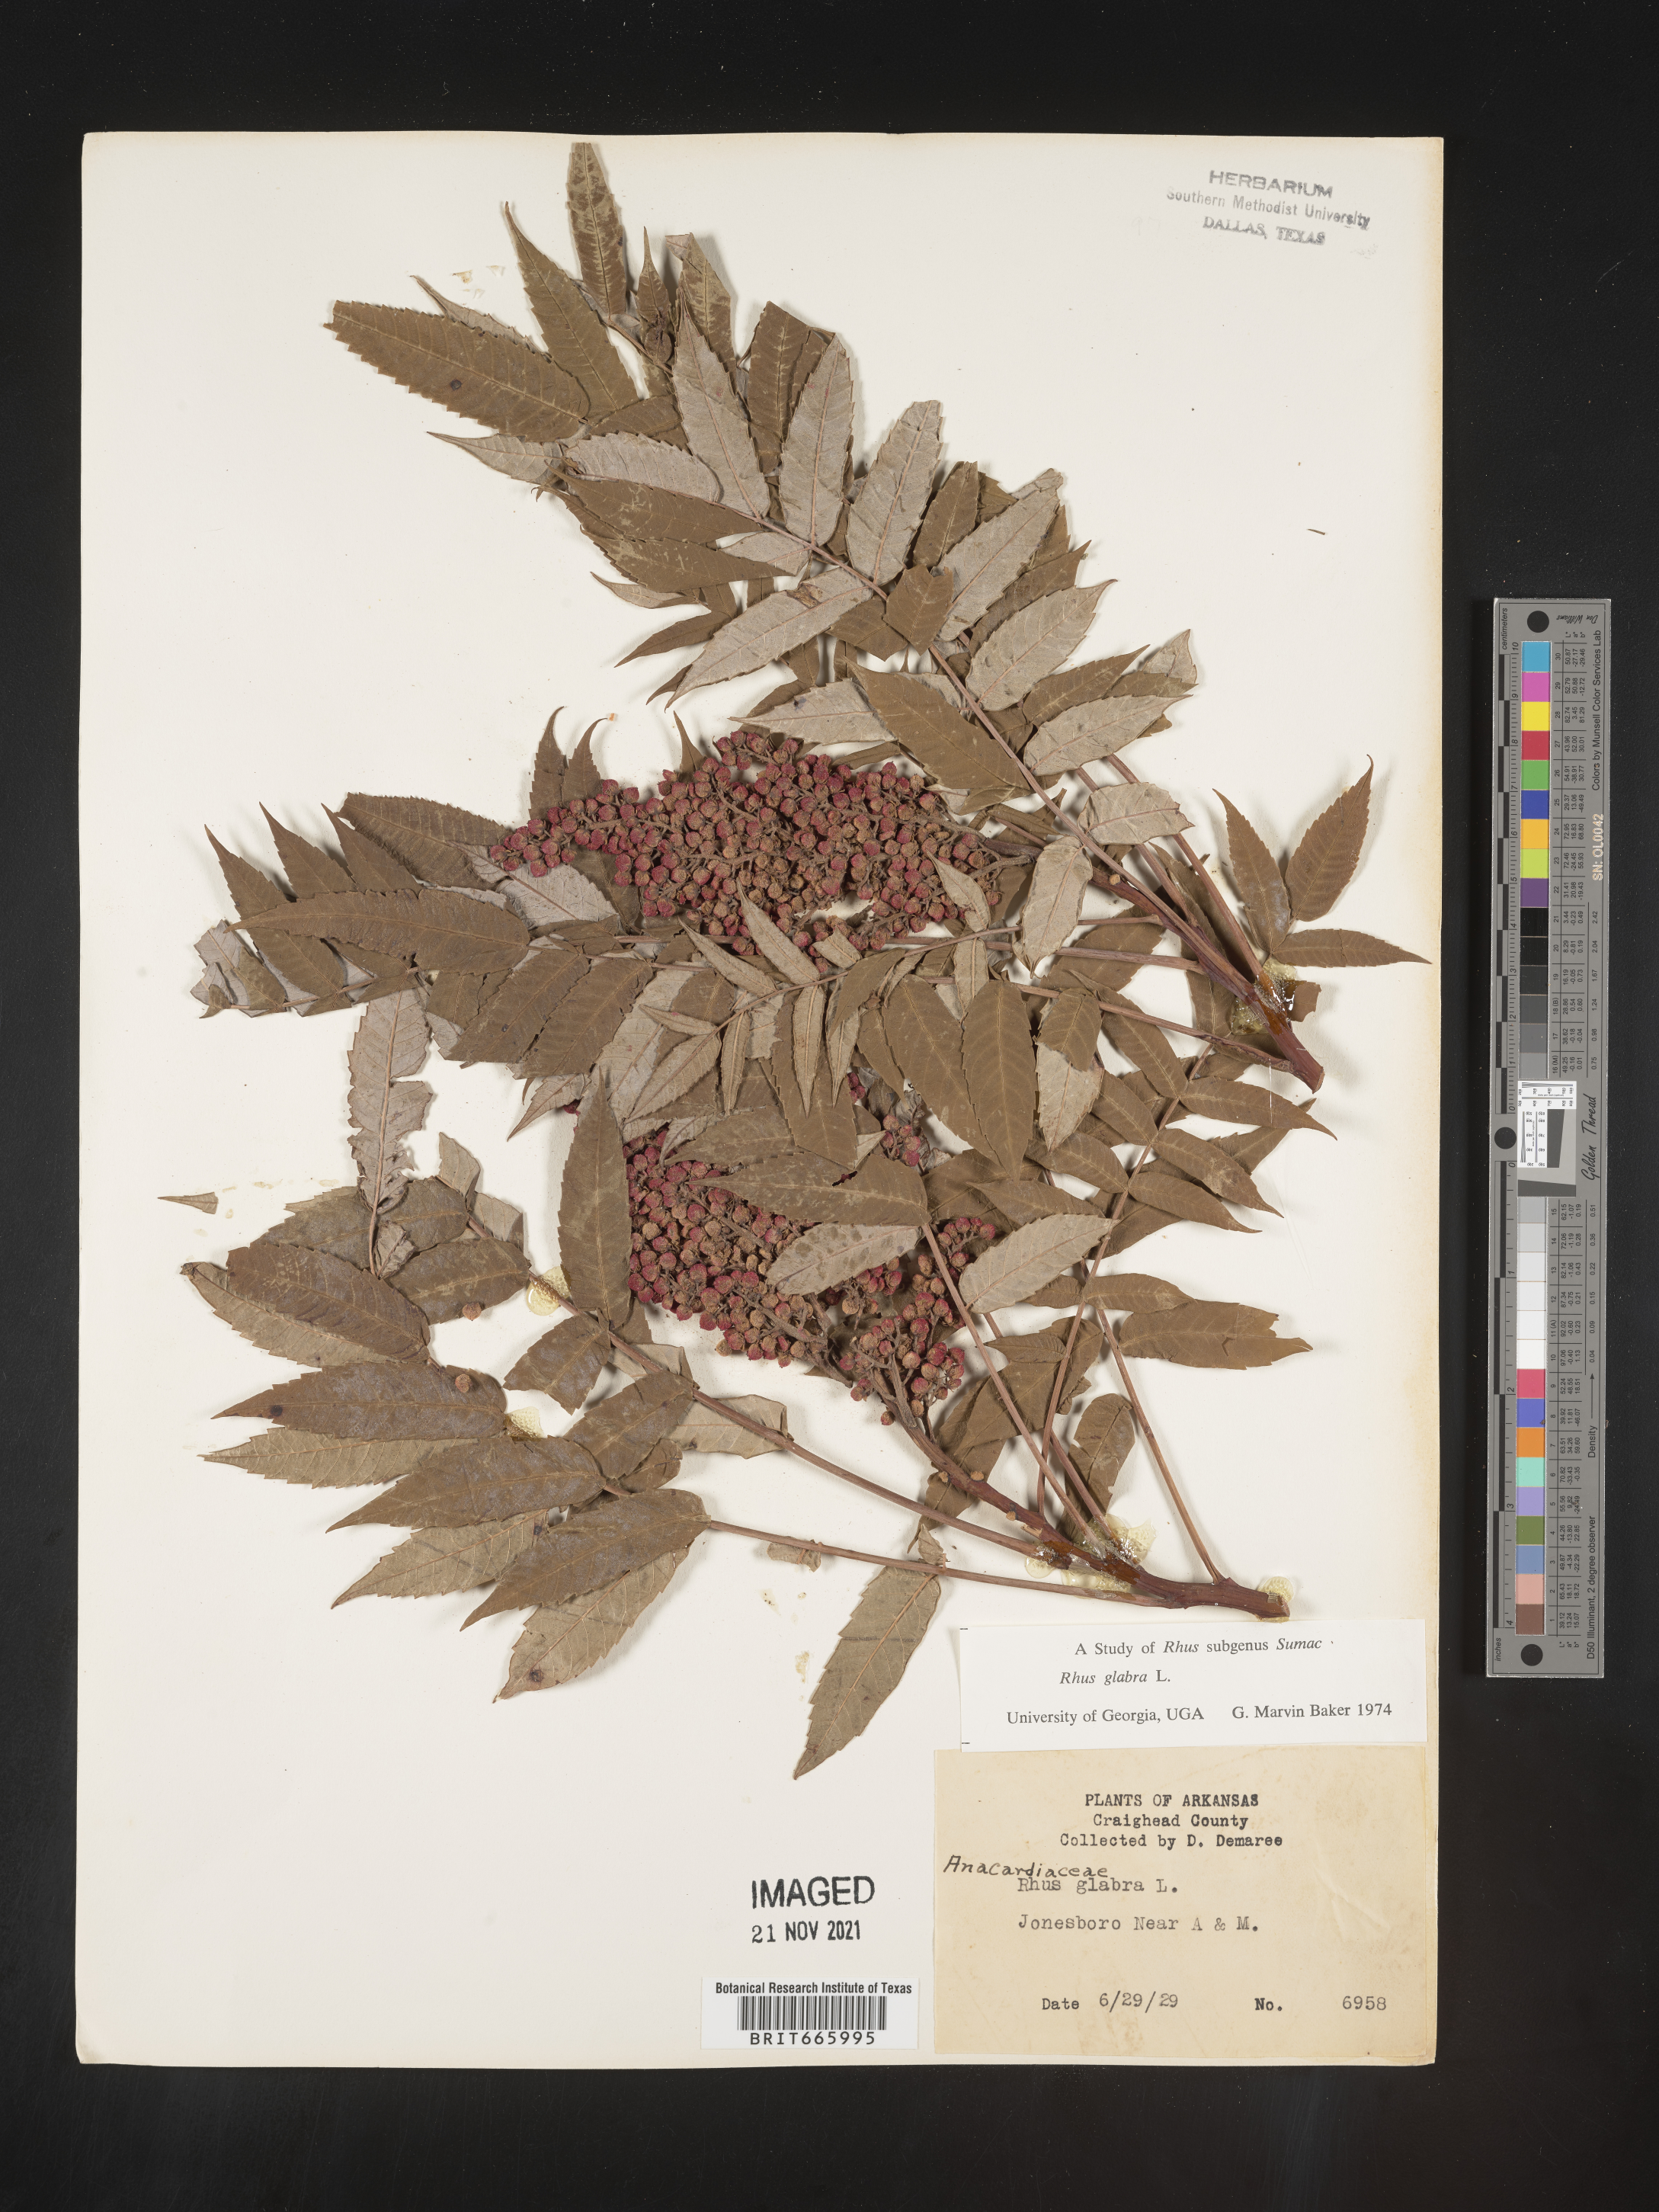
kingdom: Plantae
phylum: Tracheophyta
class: Magnoliopsida
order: Sapindales
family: Anacardiaceae
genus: Rhus
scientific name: Rhus glabra
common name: Scarlet sumac
